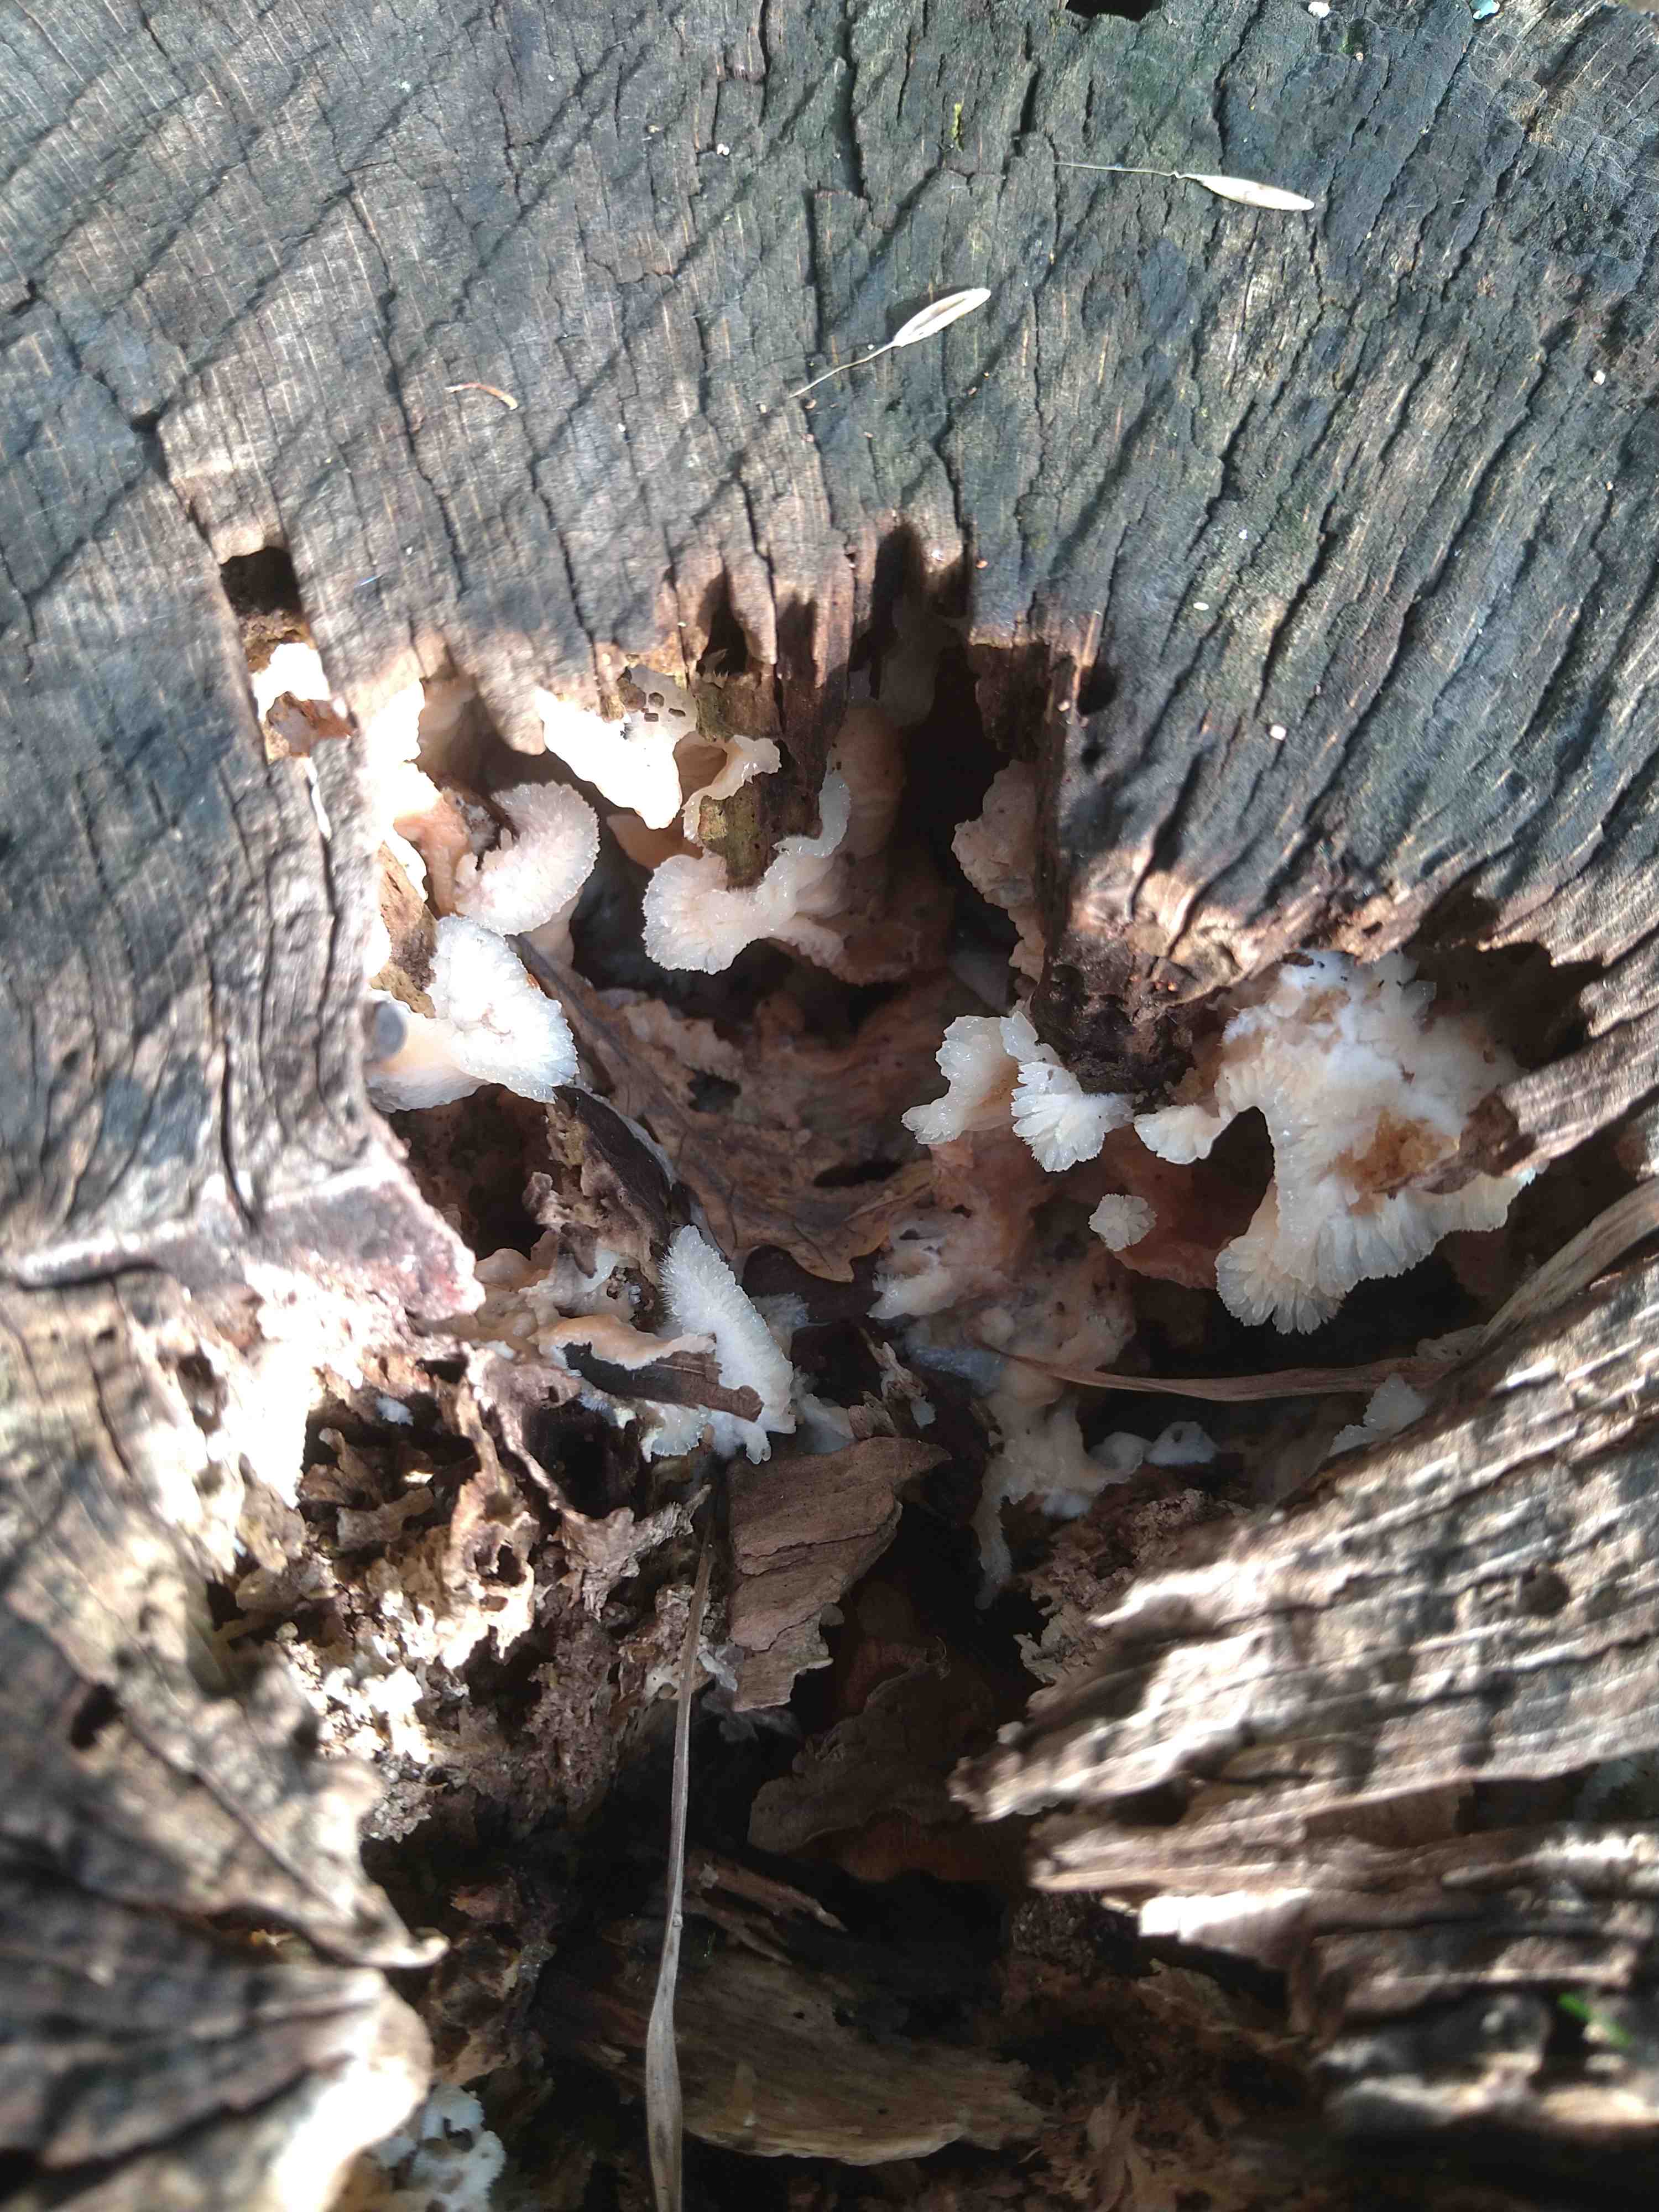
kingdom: Fungi
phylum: Basidiomycota
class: Agaricomycetes
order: Polyporales
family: Meruliaceae
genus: Phlebia
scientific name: Phlebia tremellosa
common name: bævrende åresvamp
